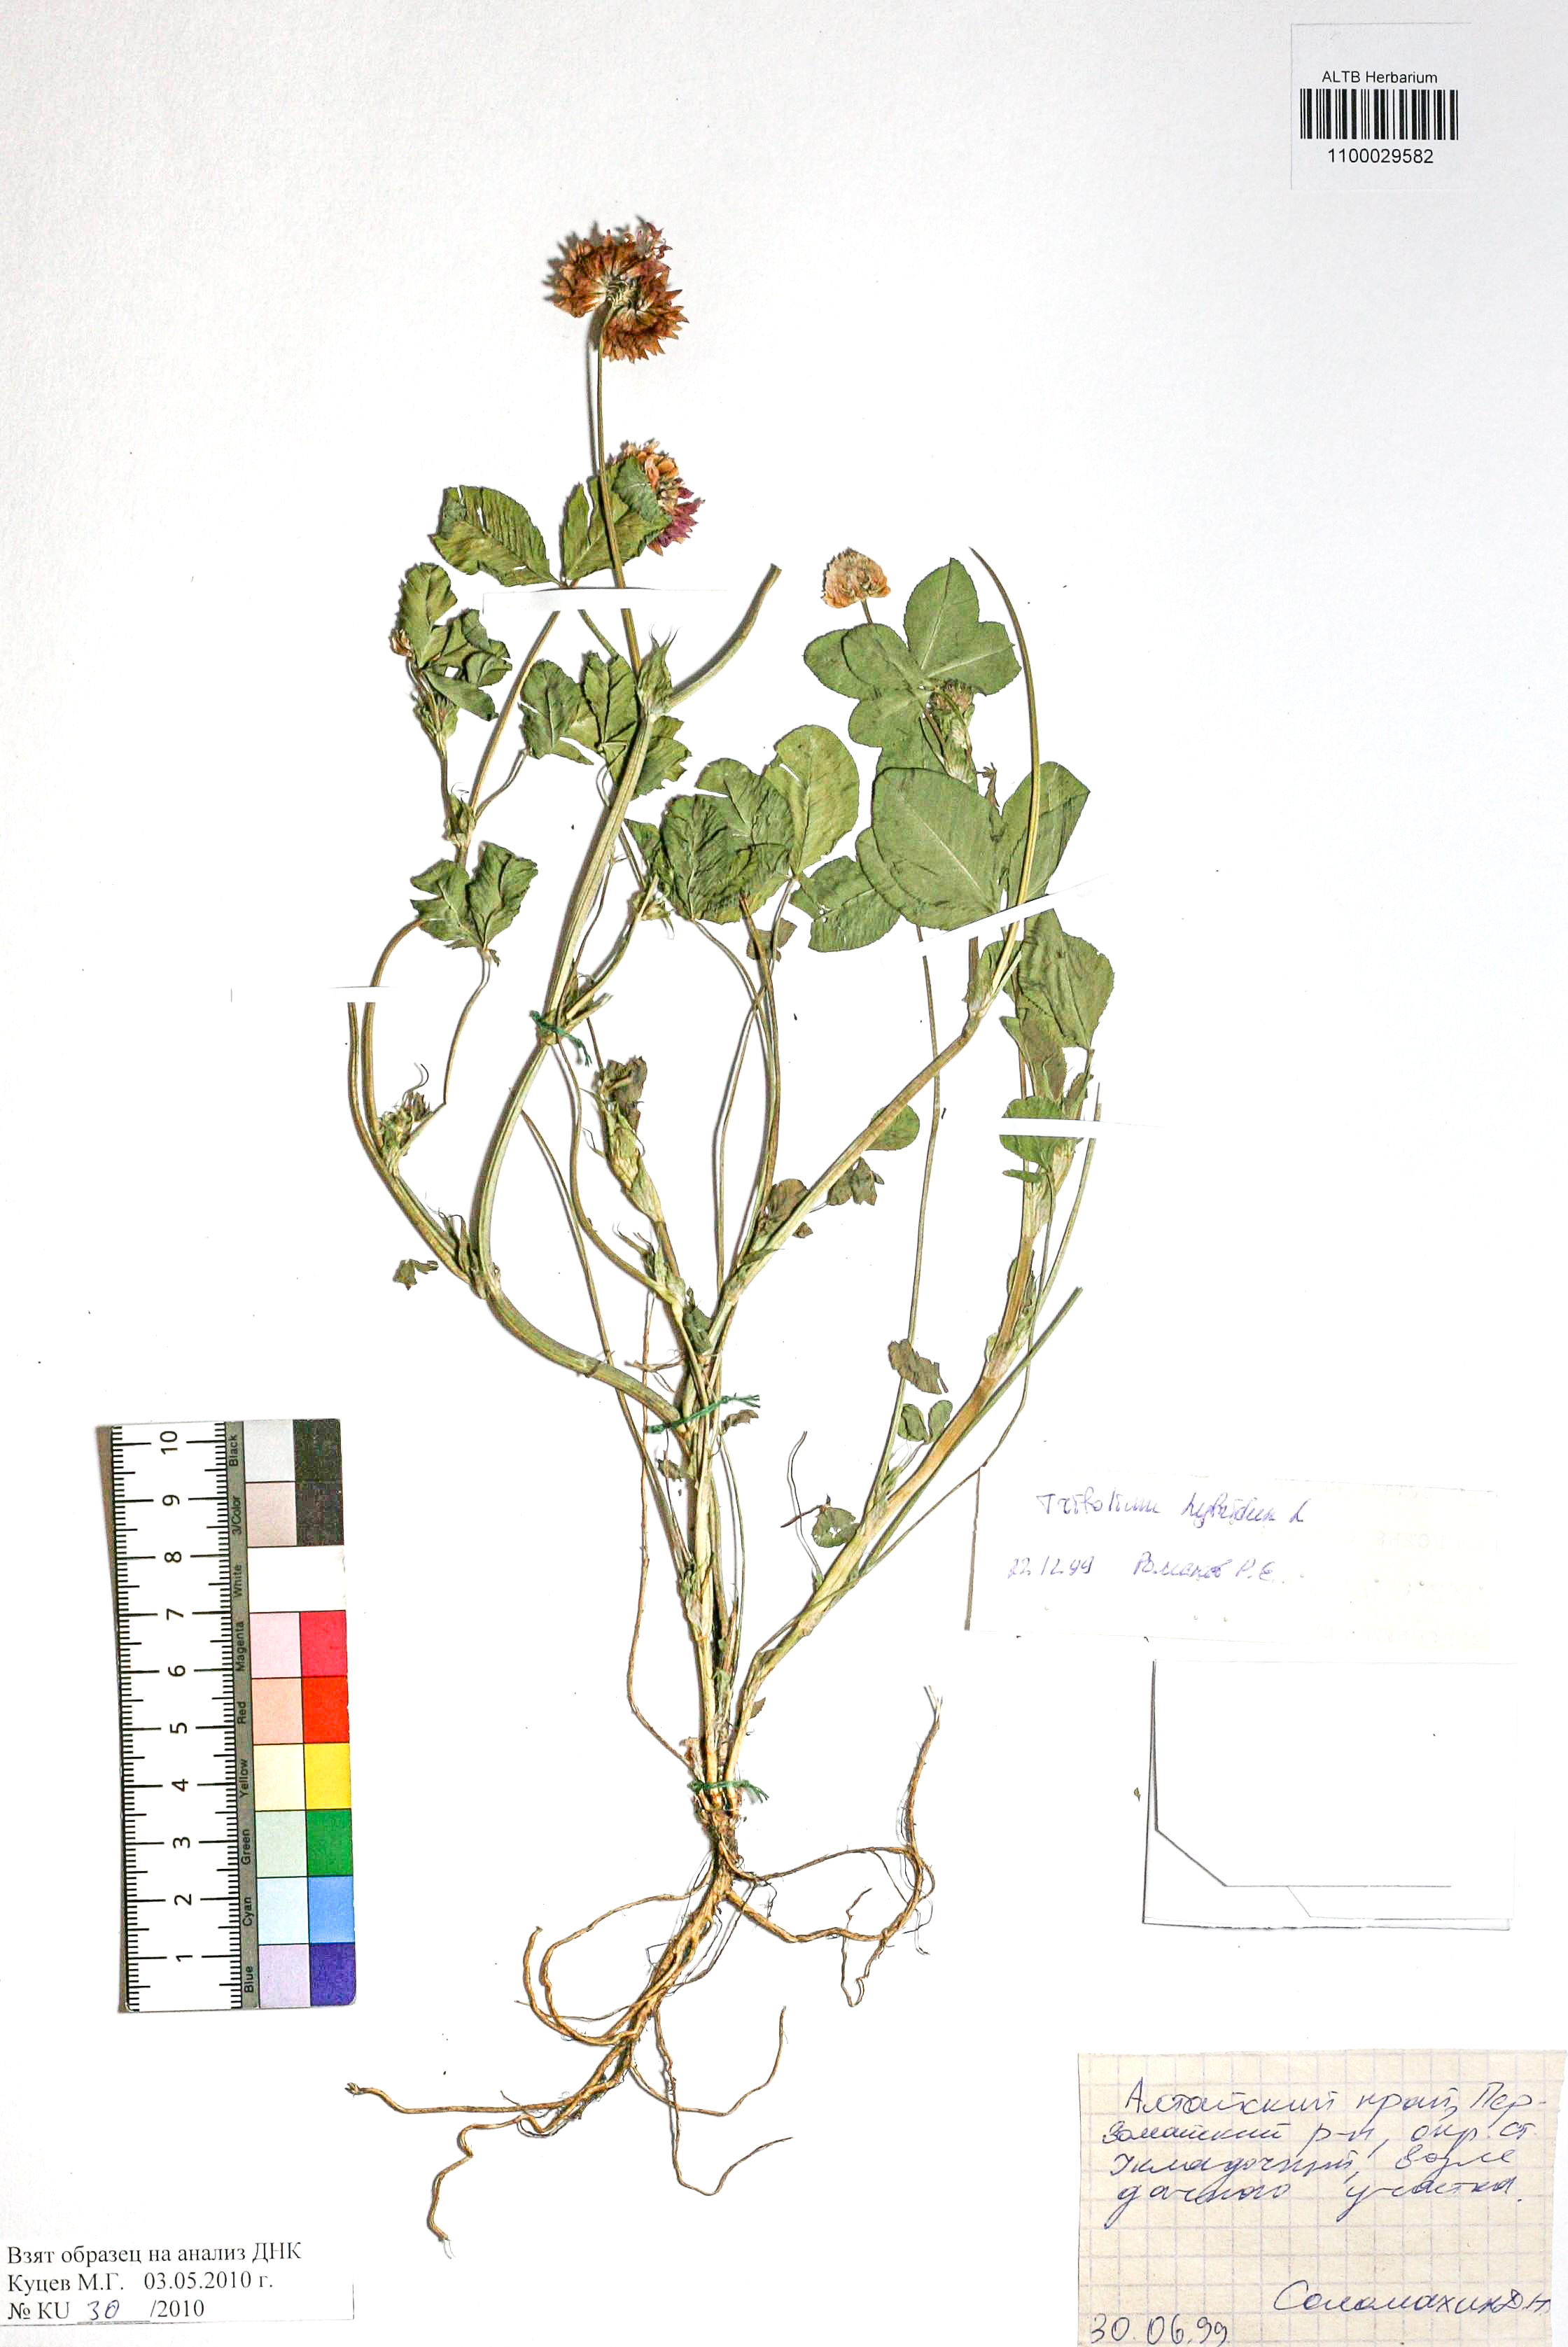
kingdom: Plantae
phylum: Tracheophyta
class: Magnoliopsida
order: Fabales
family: Fabaceae
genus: Trifolium
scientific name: Trifolium hybridum
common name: Alsike clover
